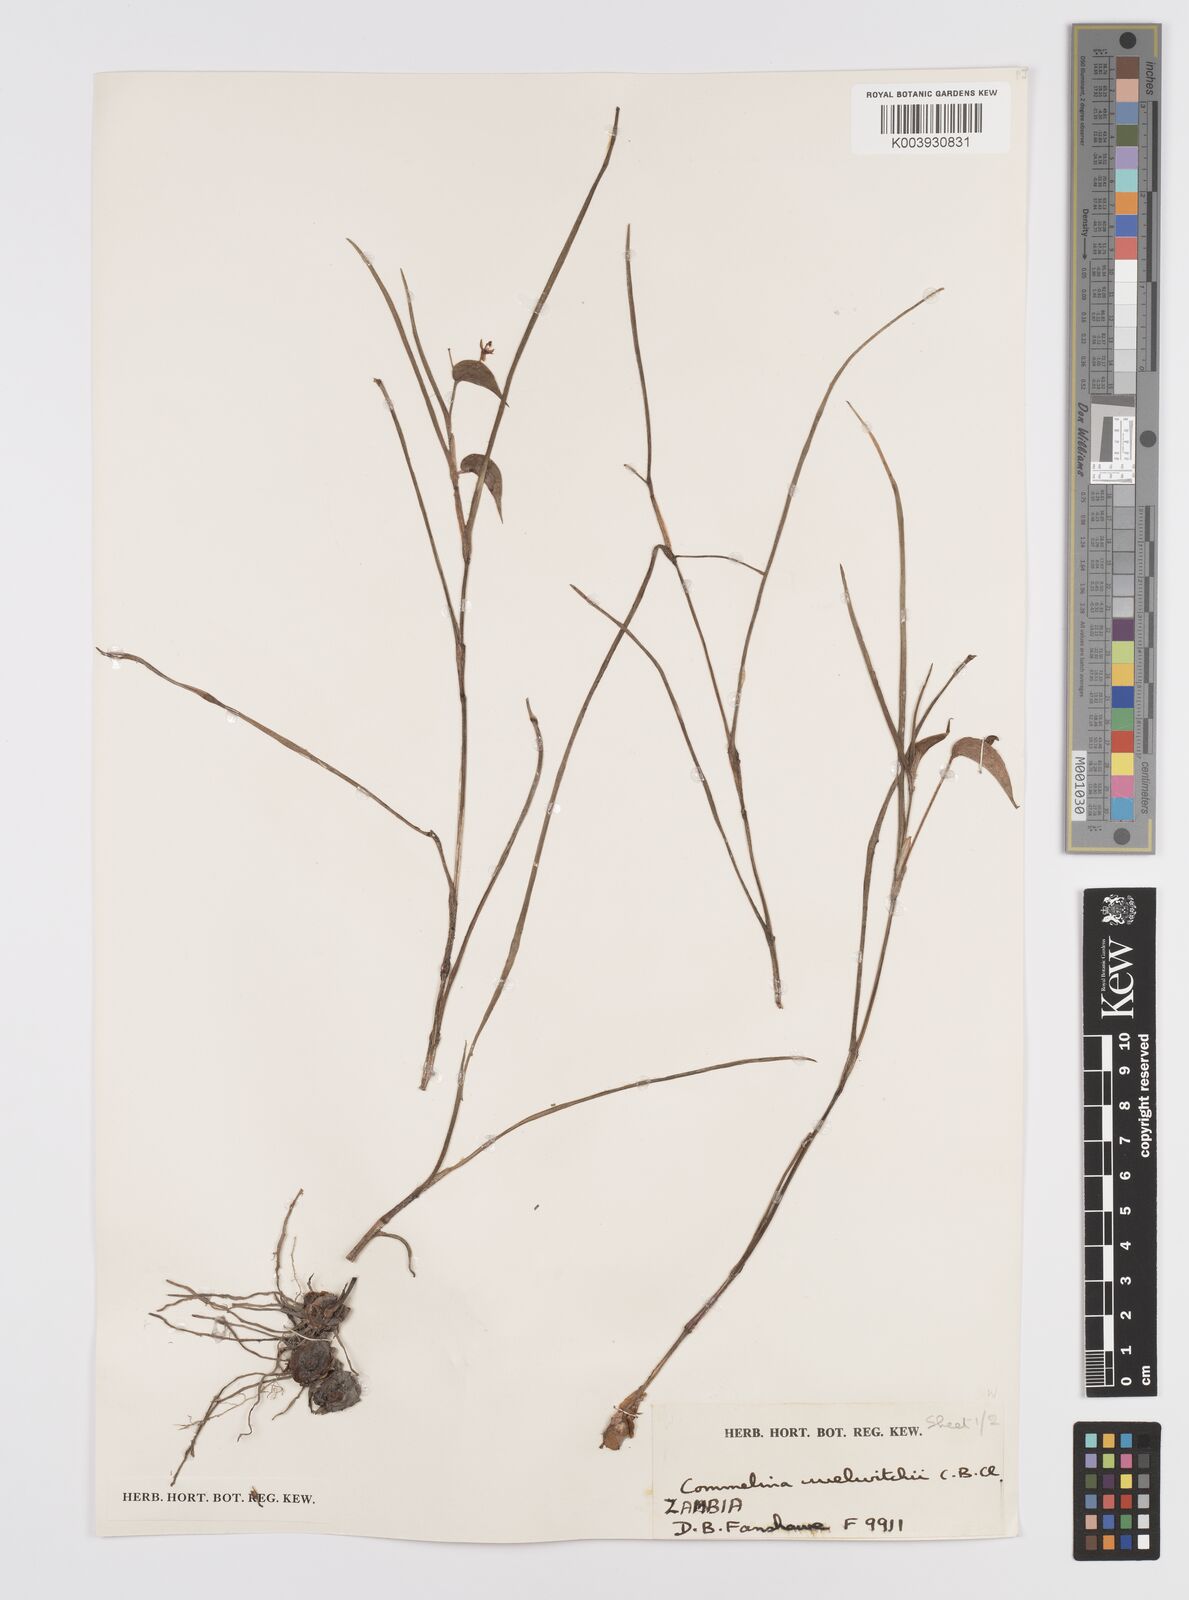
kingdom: Plantae
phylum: Tracheophyta
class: Liliopsida
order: Commelinales
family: Commelinaceae
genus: Commelina
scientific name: Commelina welwitschii
